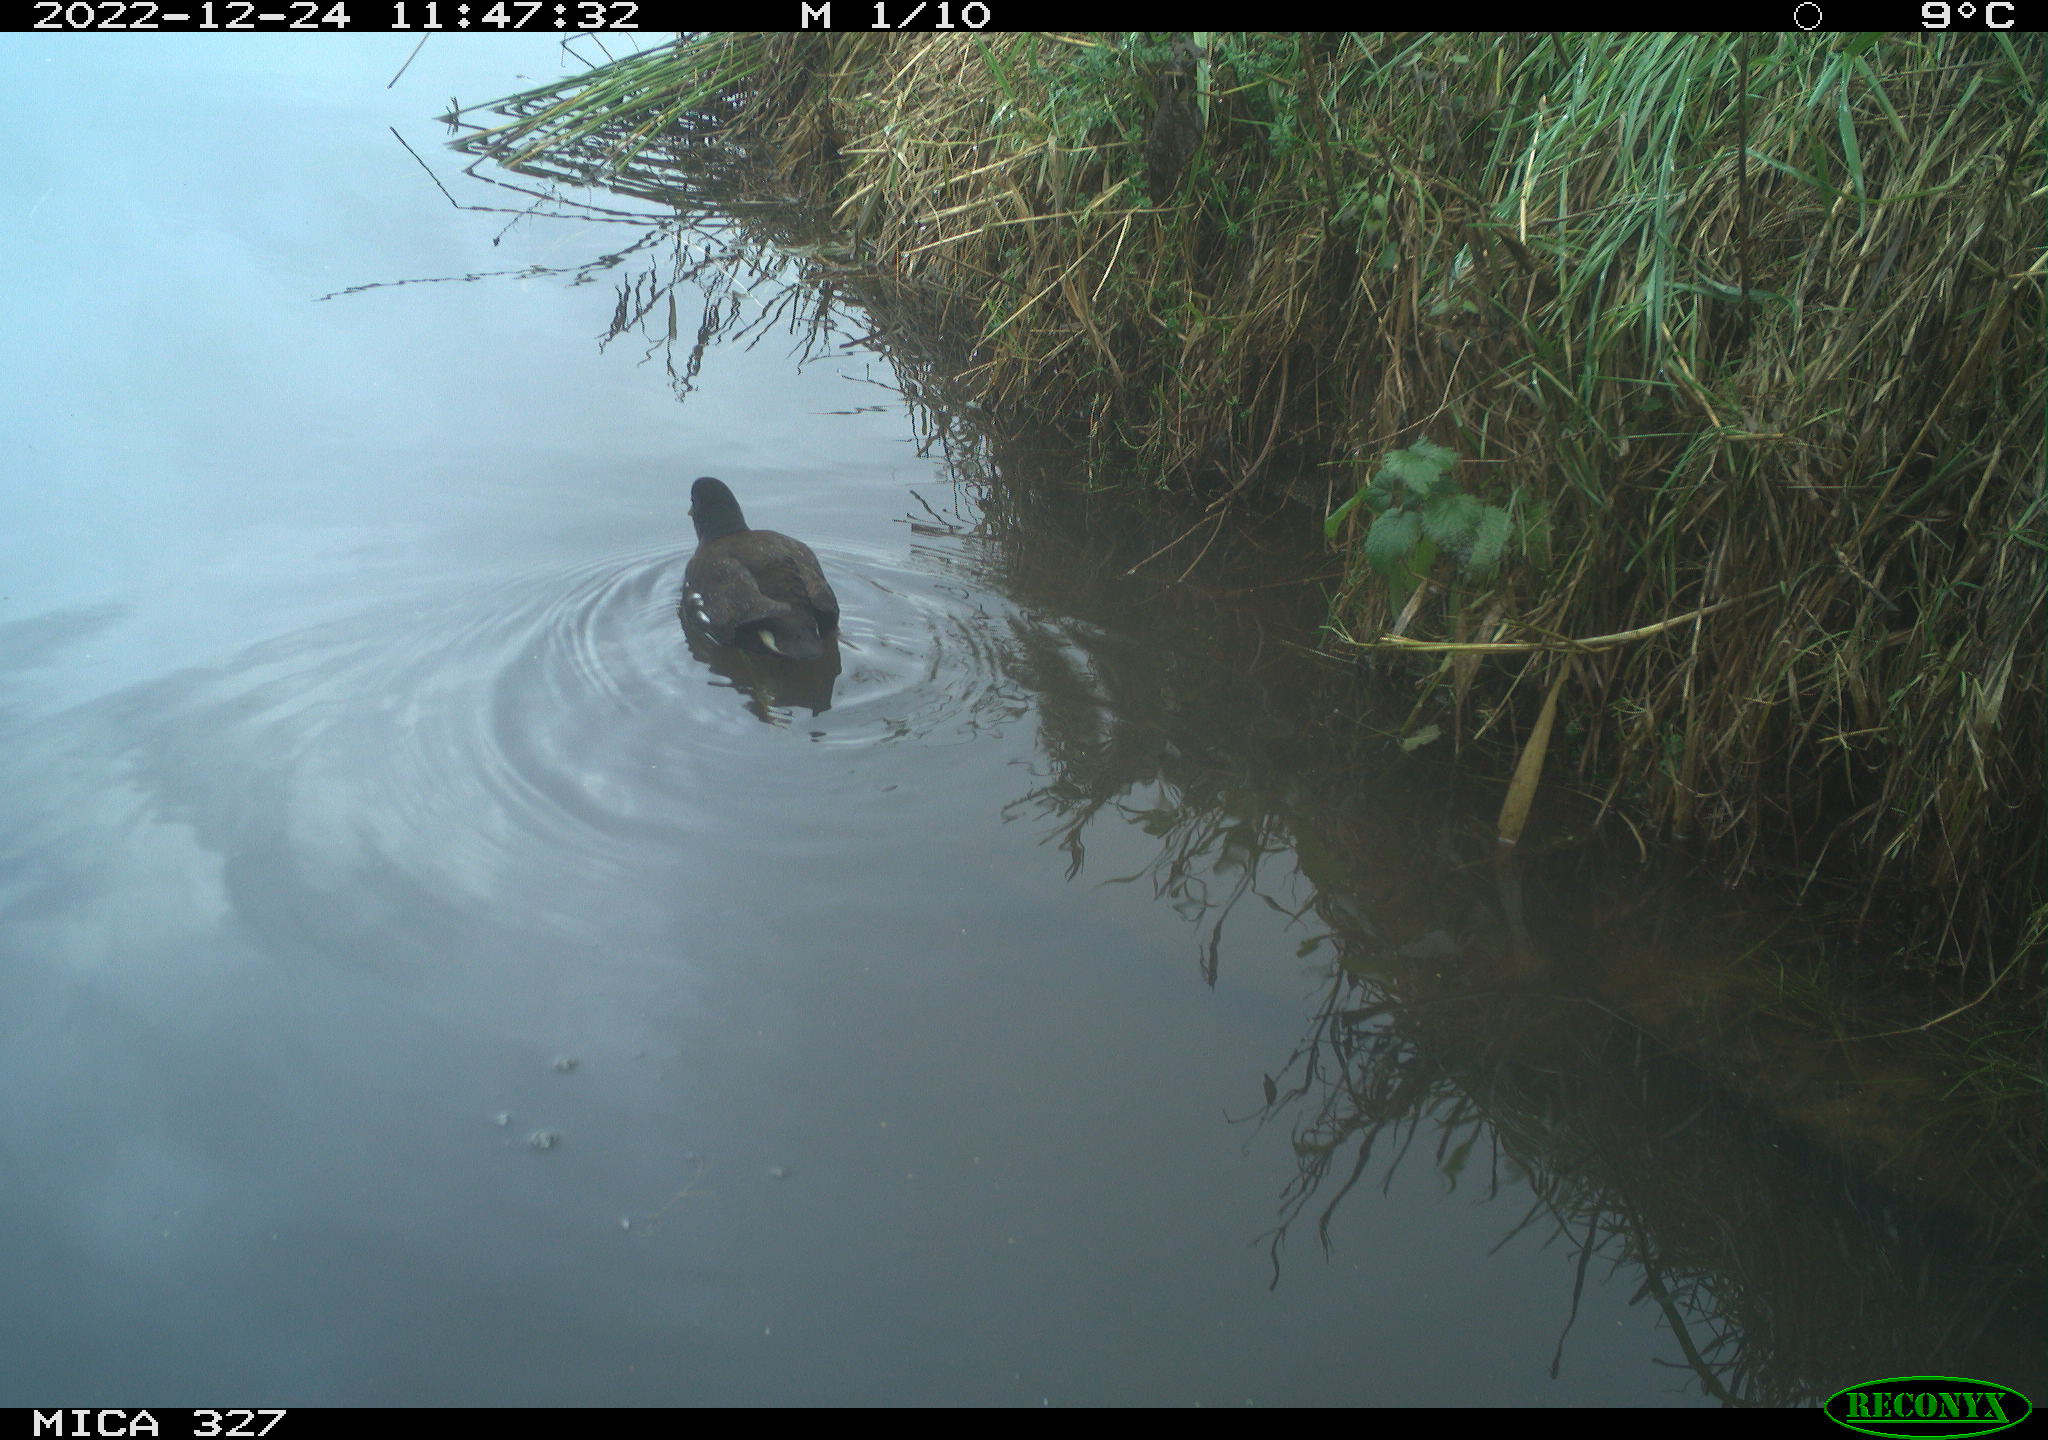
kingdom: Animalia
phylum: Chordata
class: Aves
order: Gruiformes
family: Rallidae
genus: Gallinula
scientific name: Gallinula chloropus
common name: Common moorhen
